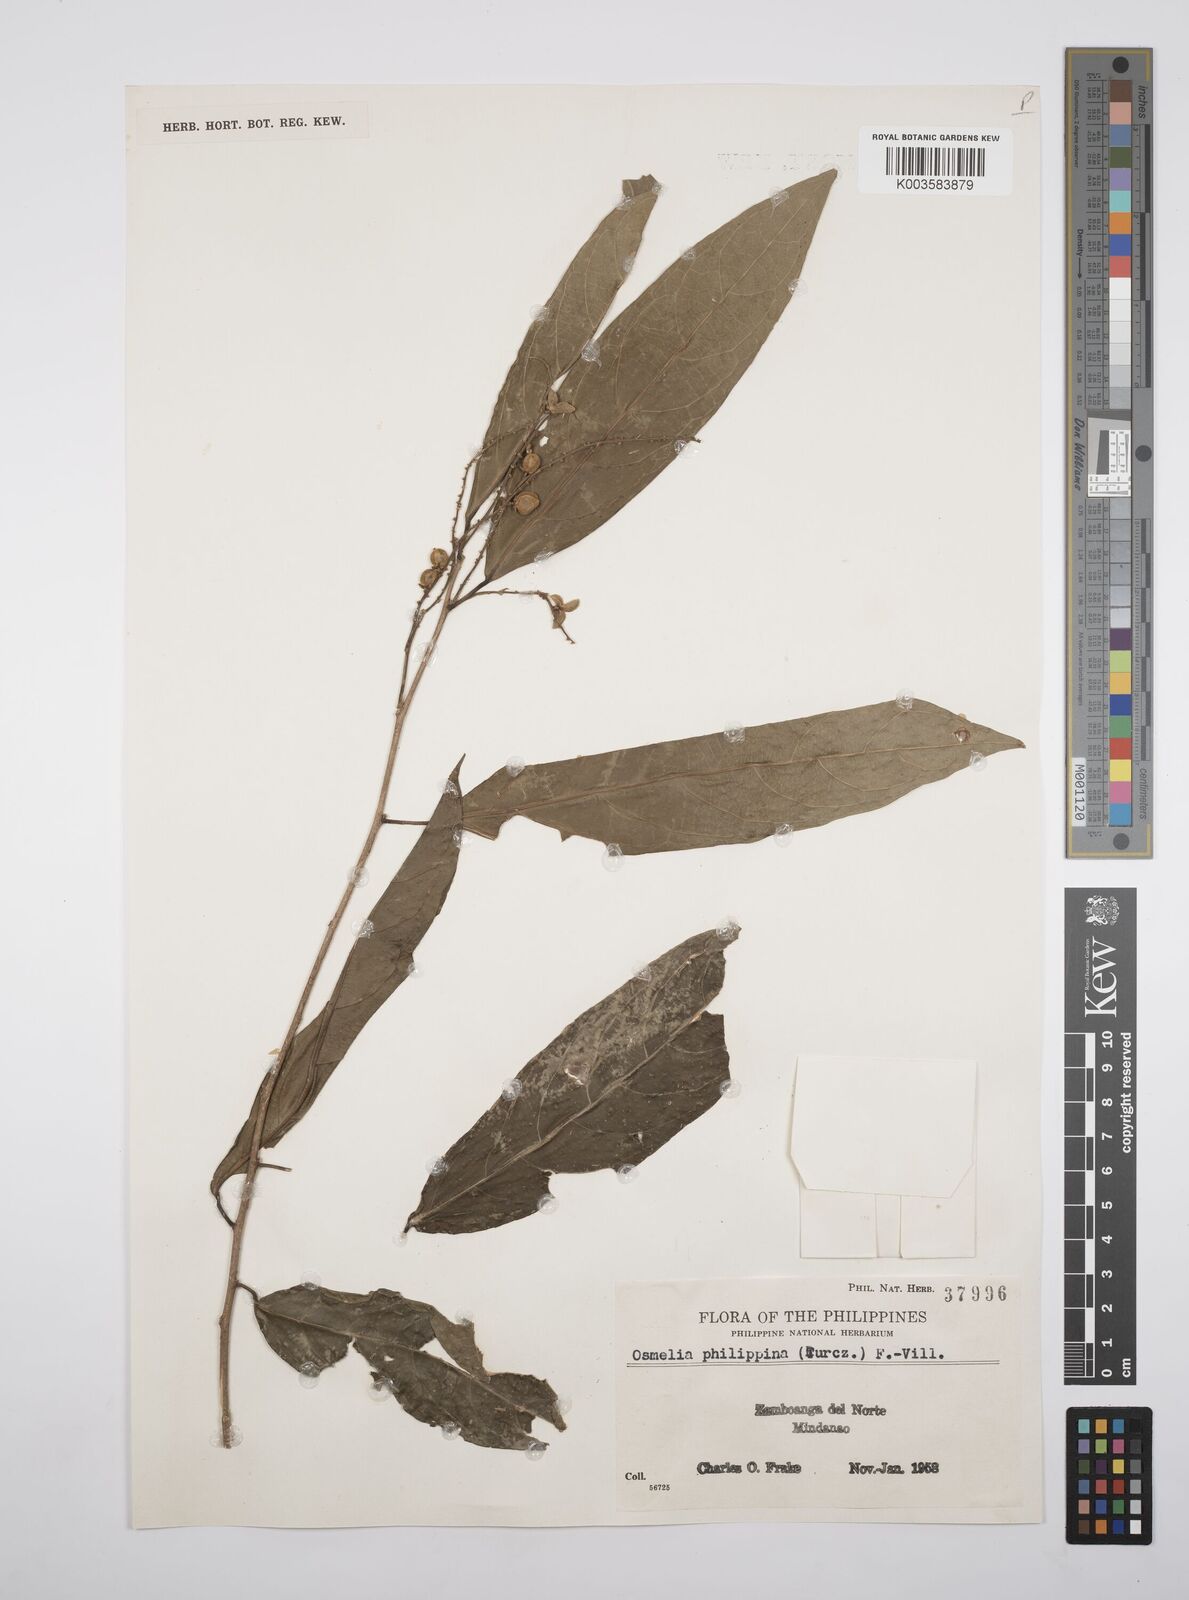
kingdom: Plantae
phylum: Tracheophyta
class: Magnoliopsida
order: Malpighiales
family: Salicaceae
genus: Osmelia
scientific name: Osmelia philippina
